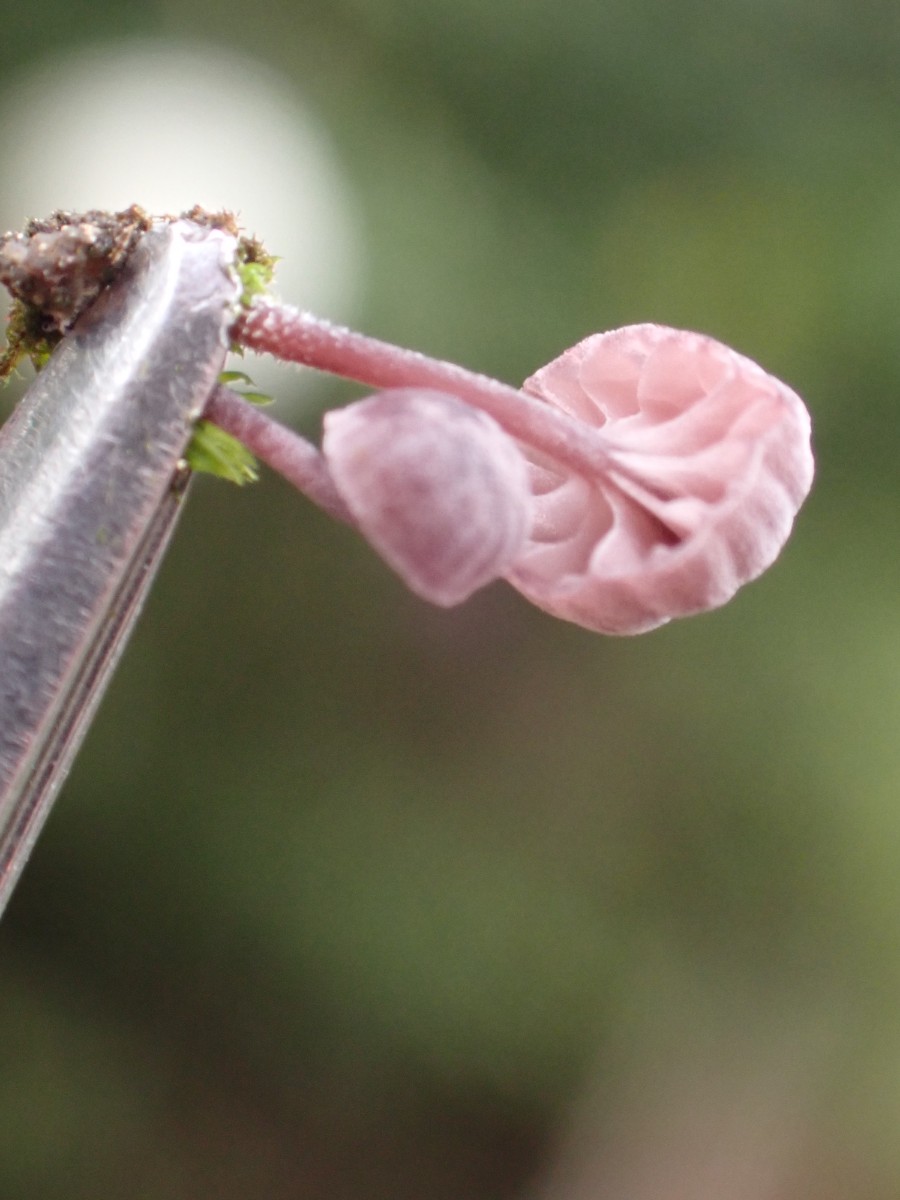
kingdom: Fungi
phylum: Basidiomycota
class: Agaricomycetes
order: Agaricales
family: Mycenaceae
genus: Mycena
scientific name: Mycena meliigena
